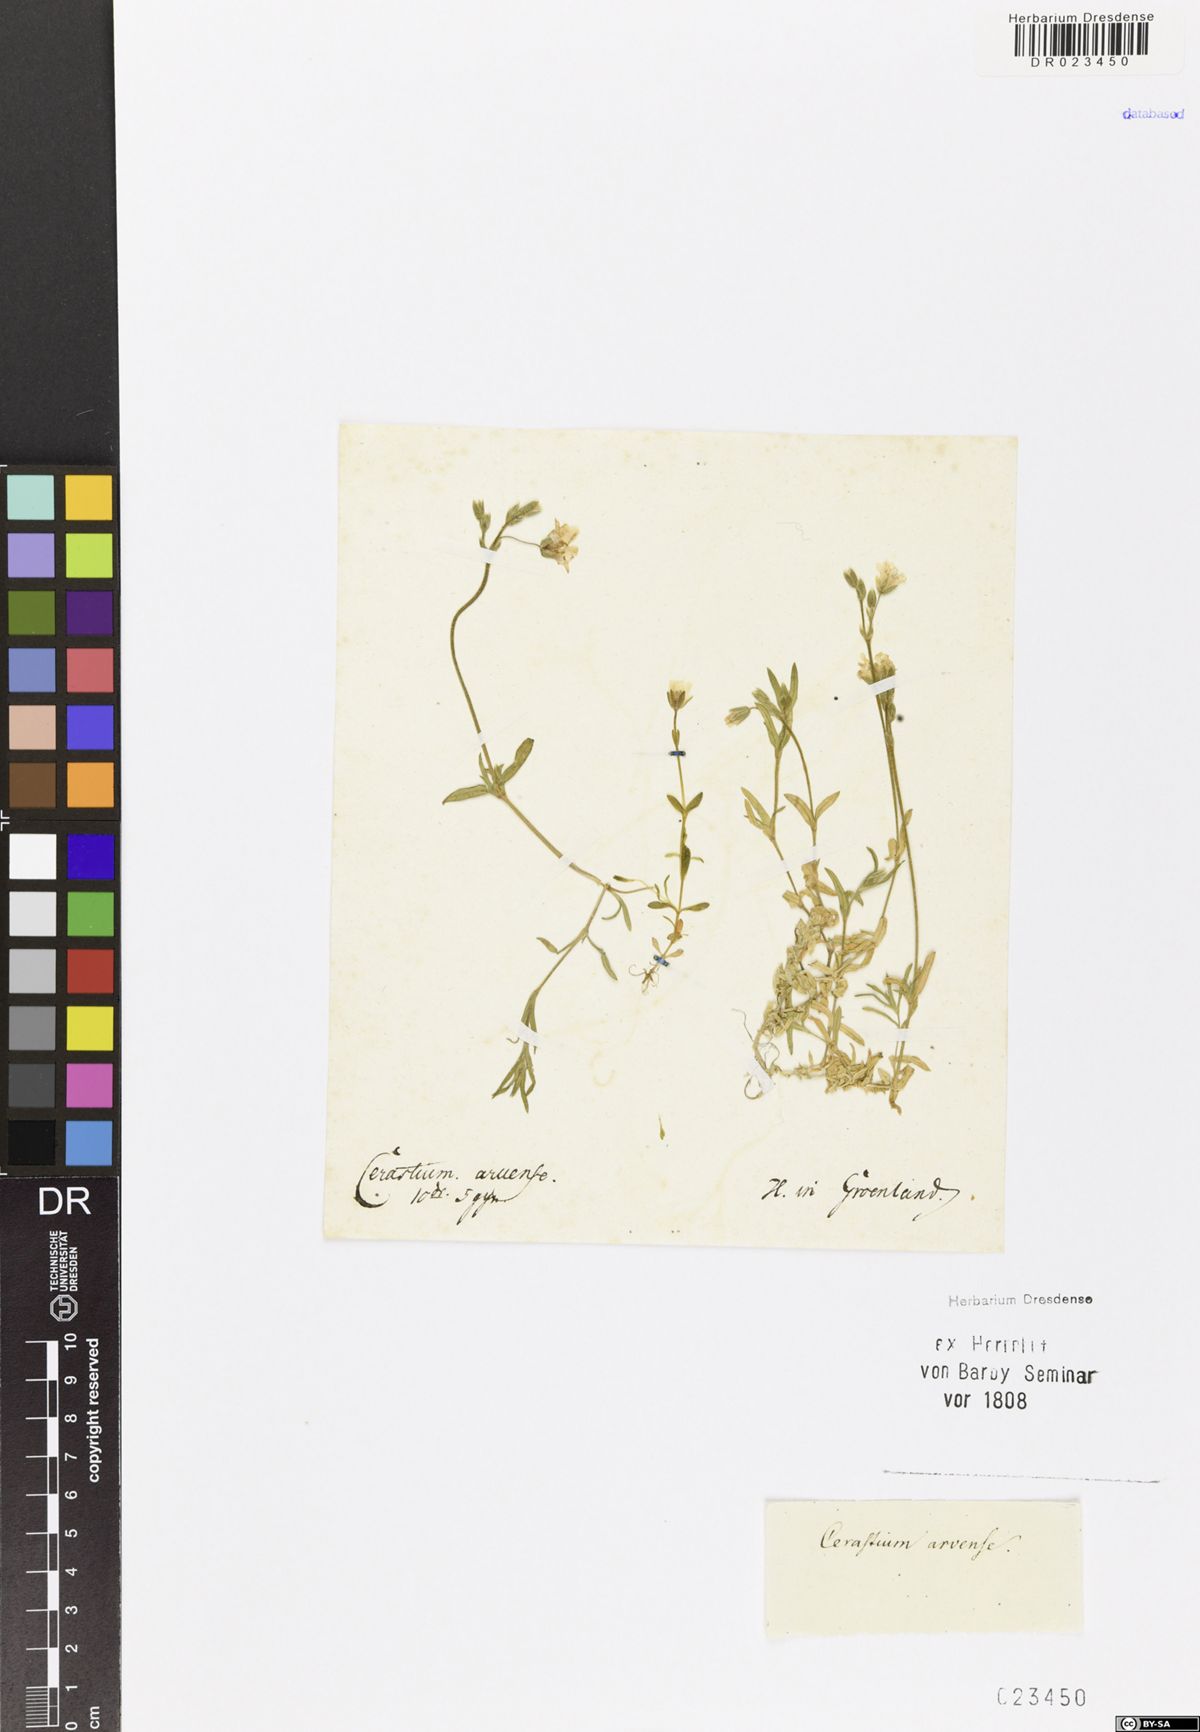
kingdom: Plantae
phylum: Tracheophyta
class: Magnoliopsida
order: Caryophyllales
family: Caryophyllaceae
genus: Cerastium
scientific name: Cerastium arvense
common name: Field mouse-ear
